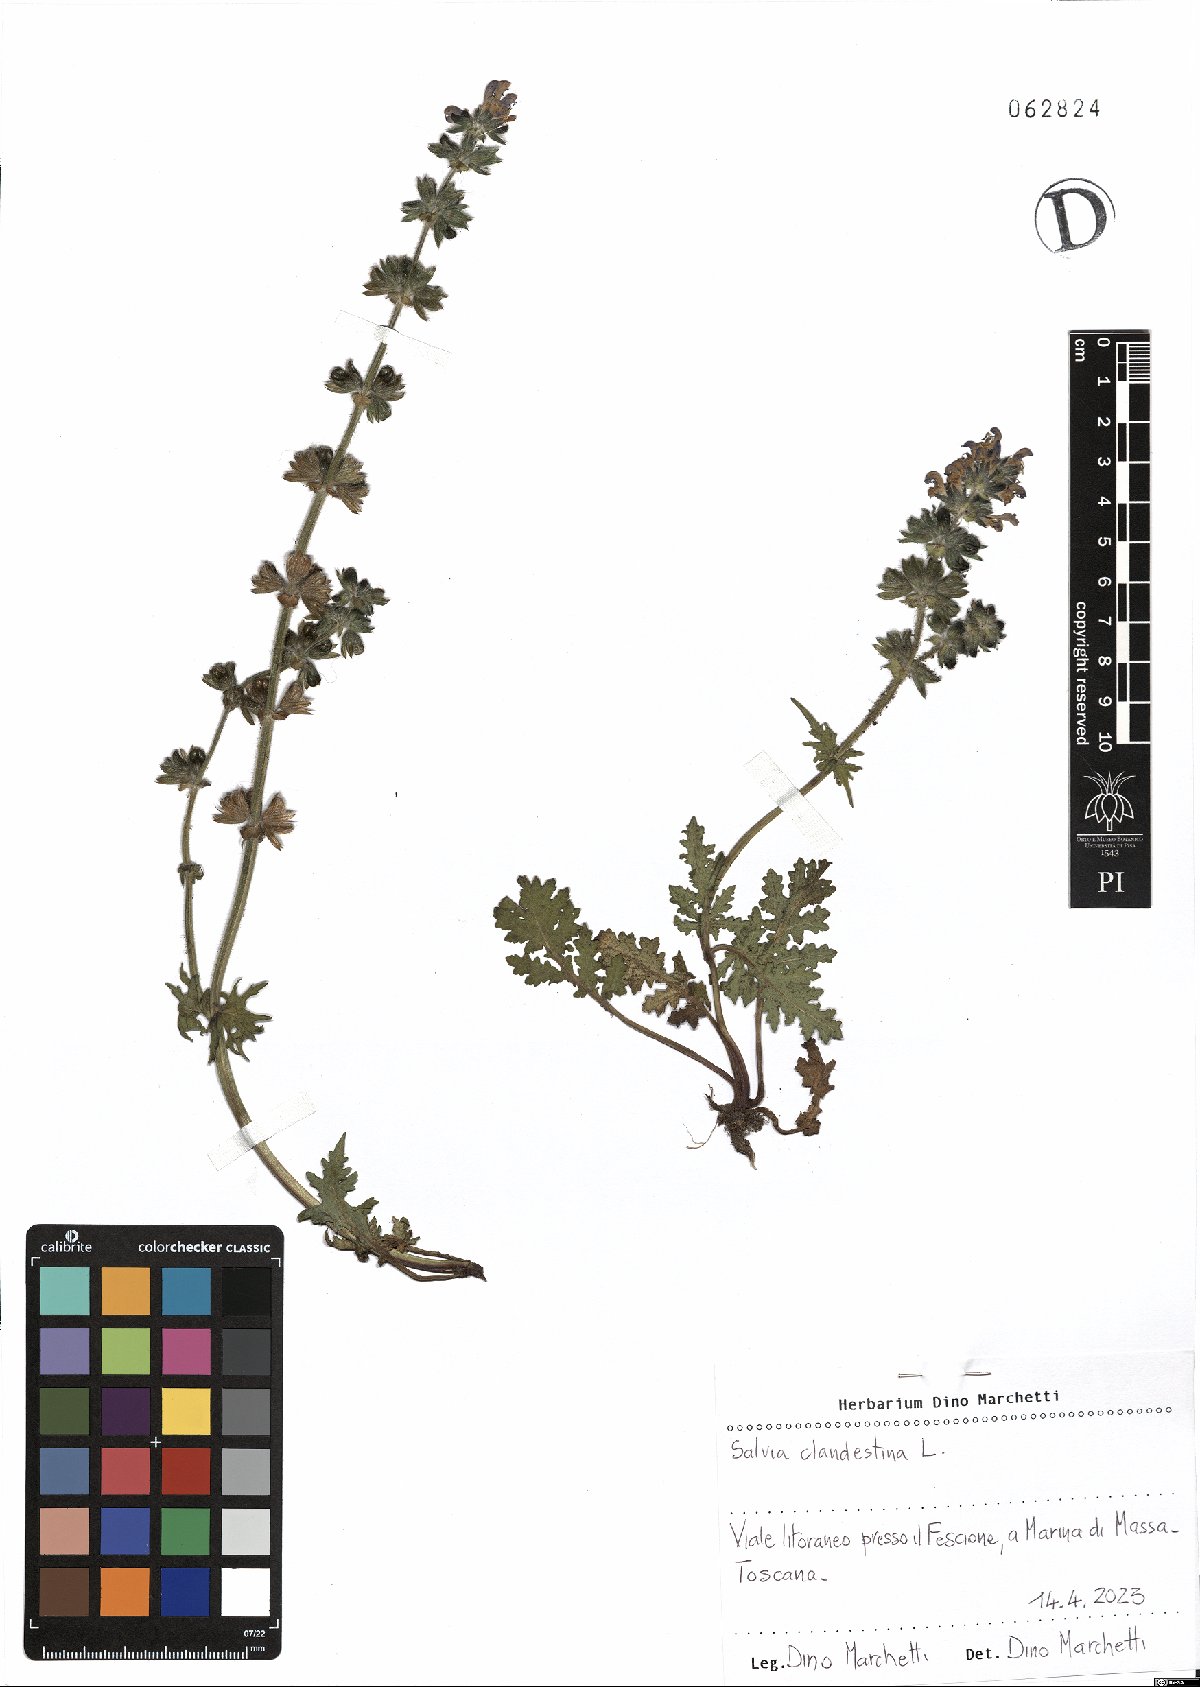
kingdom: Plantae
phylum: Tracheophyta
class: Magnoliopsida
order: Lamiales
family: Lamiaceae
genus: Salvia
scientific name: Salvia verbenaca
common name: Wild clary
